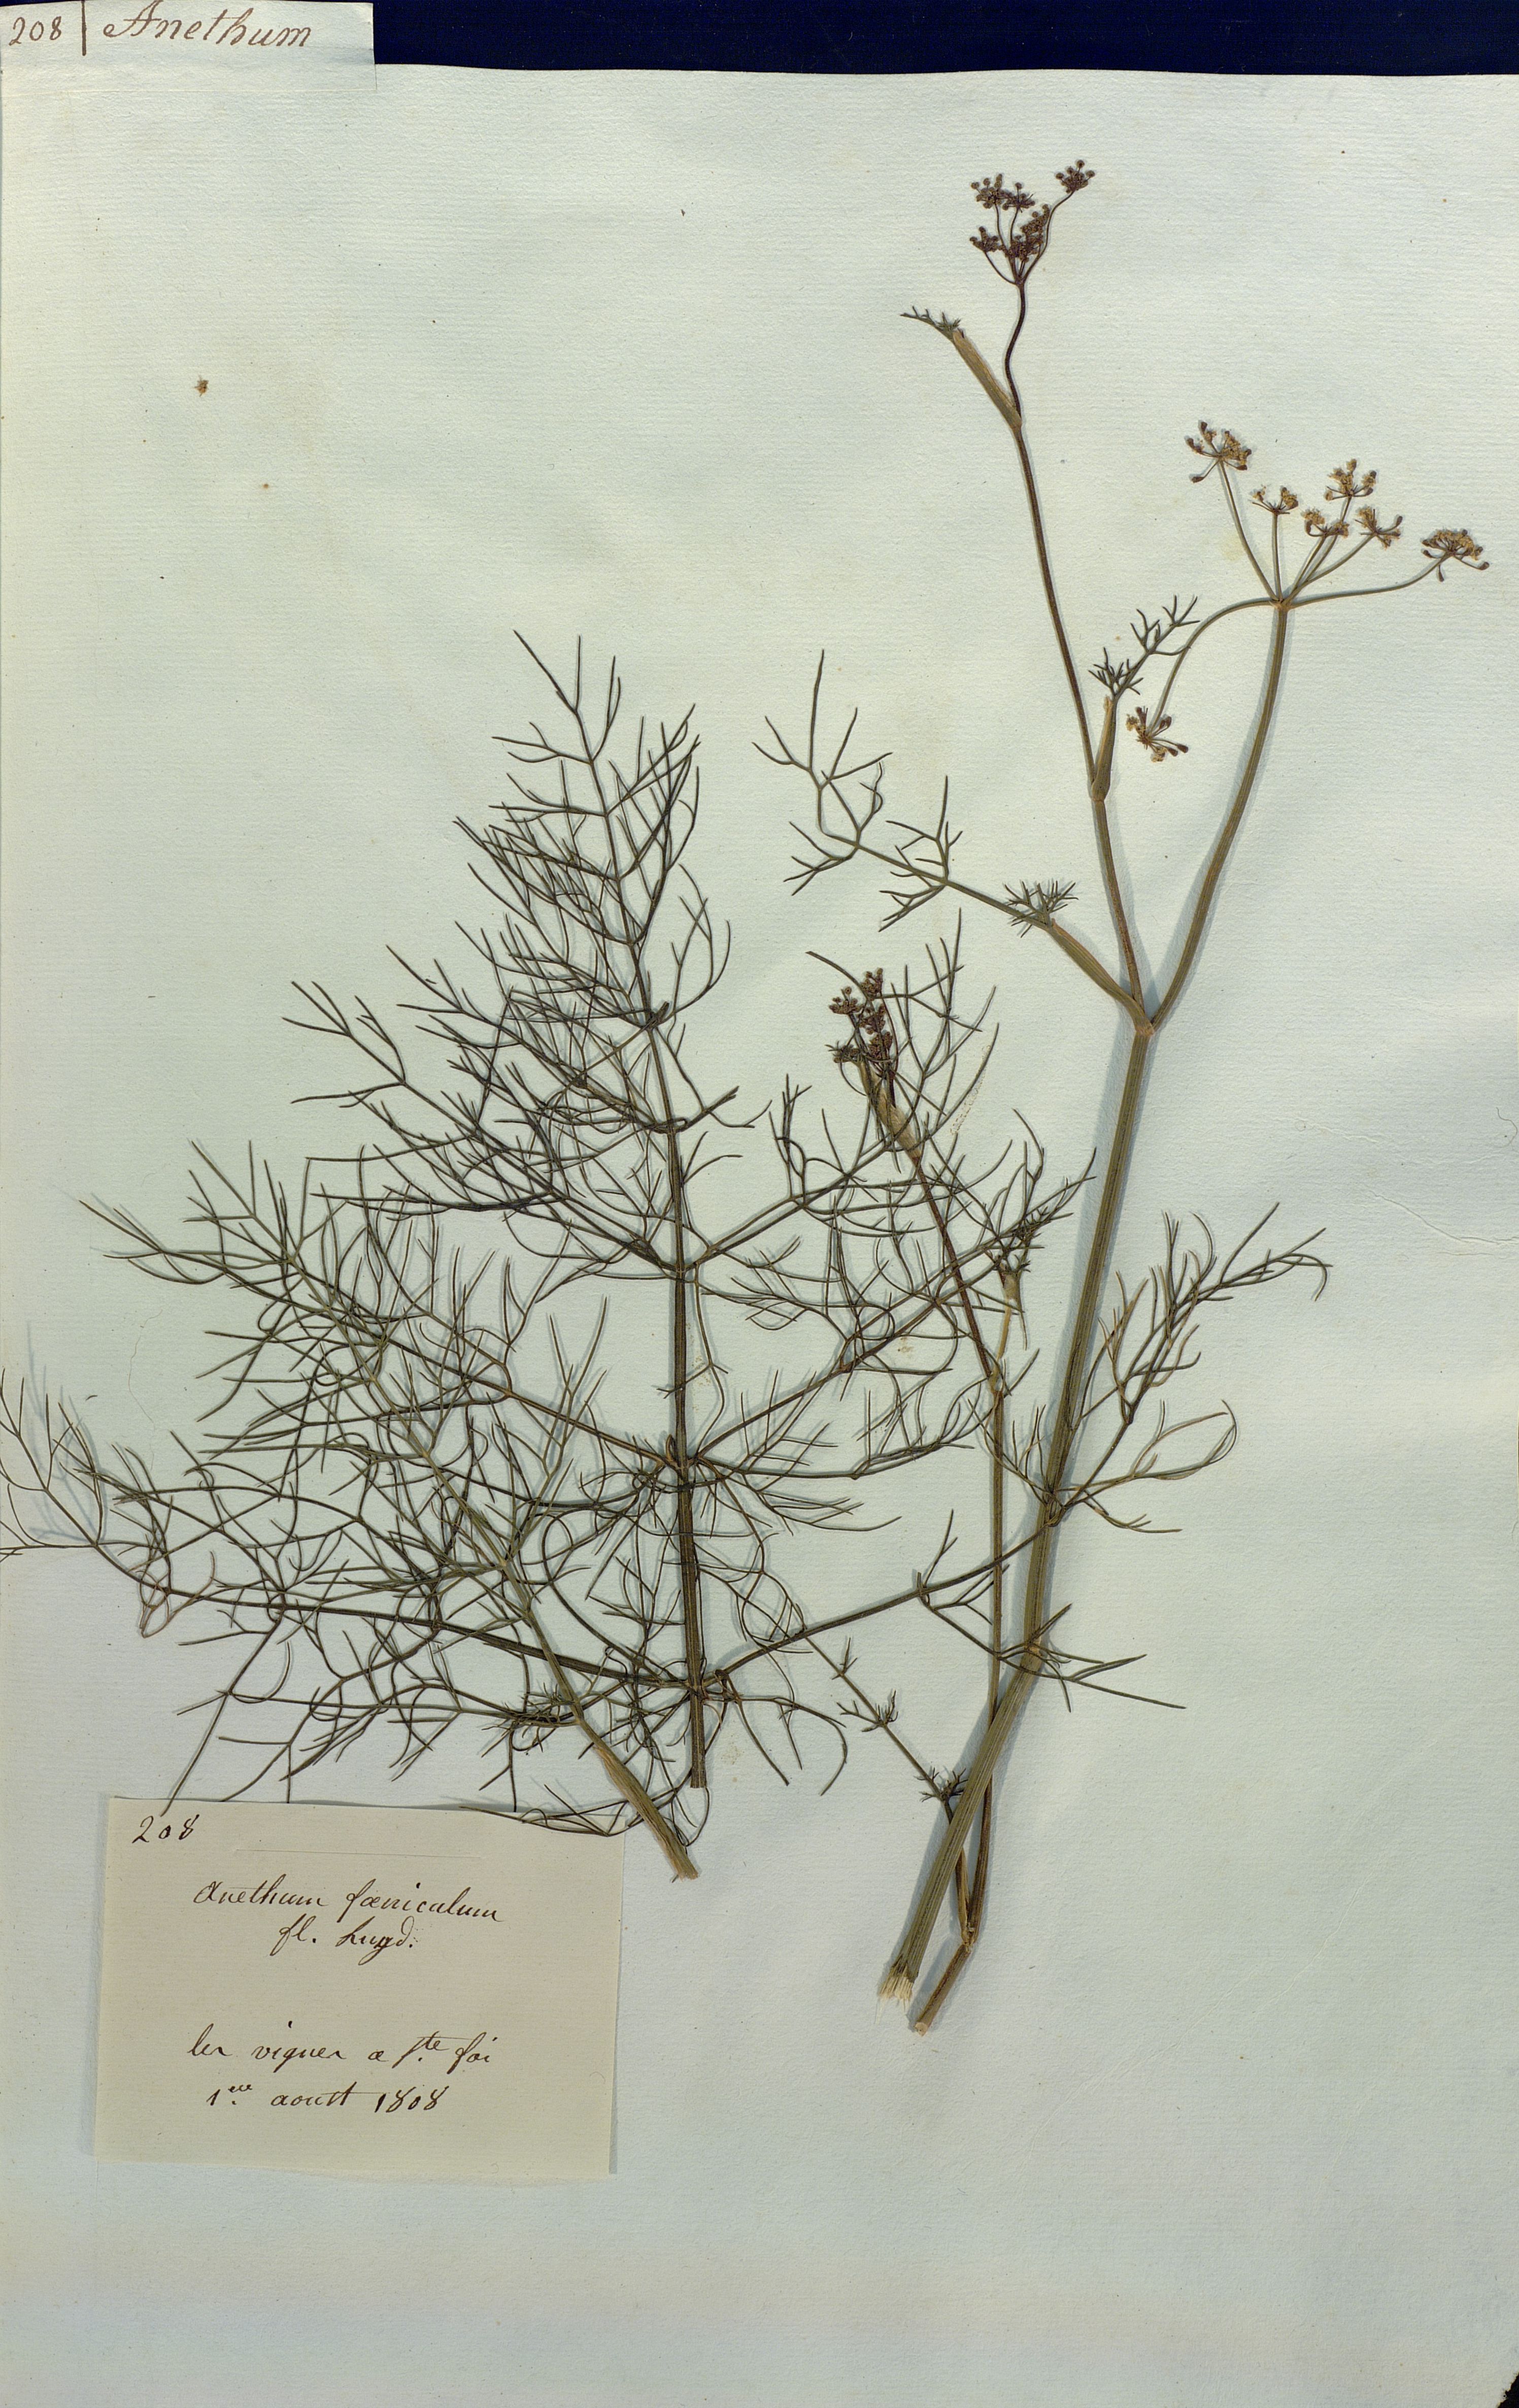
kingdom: Plantae
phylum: Tracheophyta
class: Magnoliopsida
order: Apiales
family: Apiaceae
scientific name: Apiaceae
